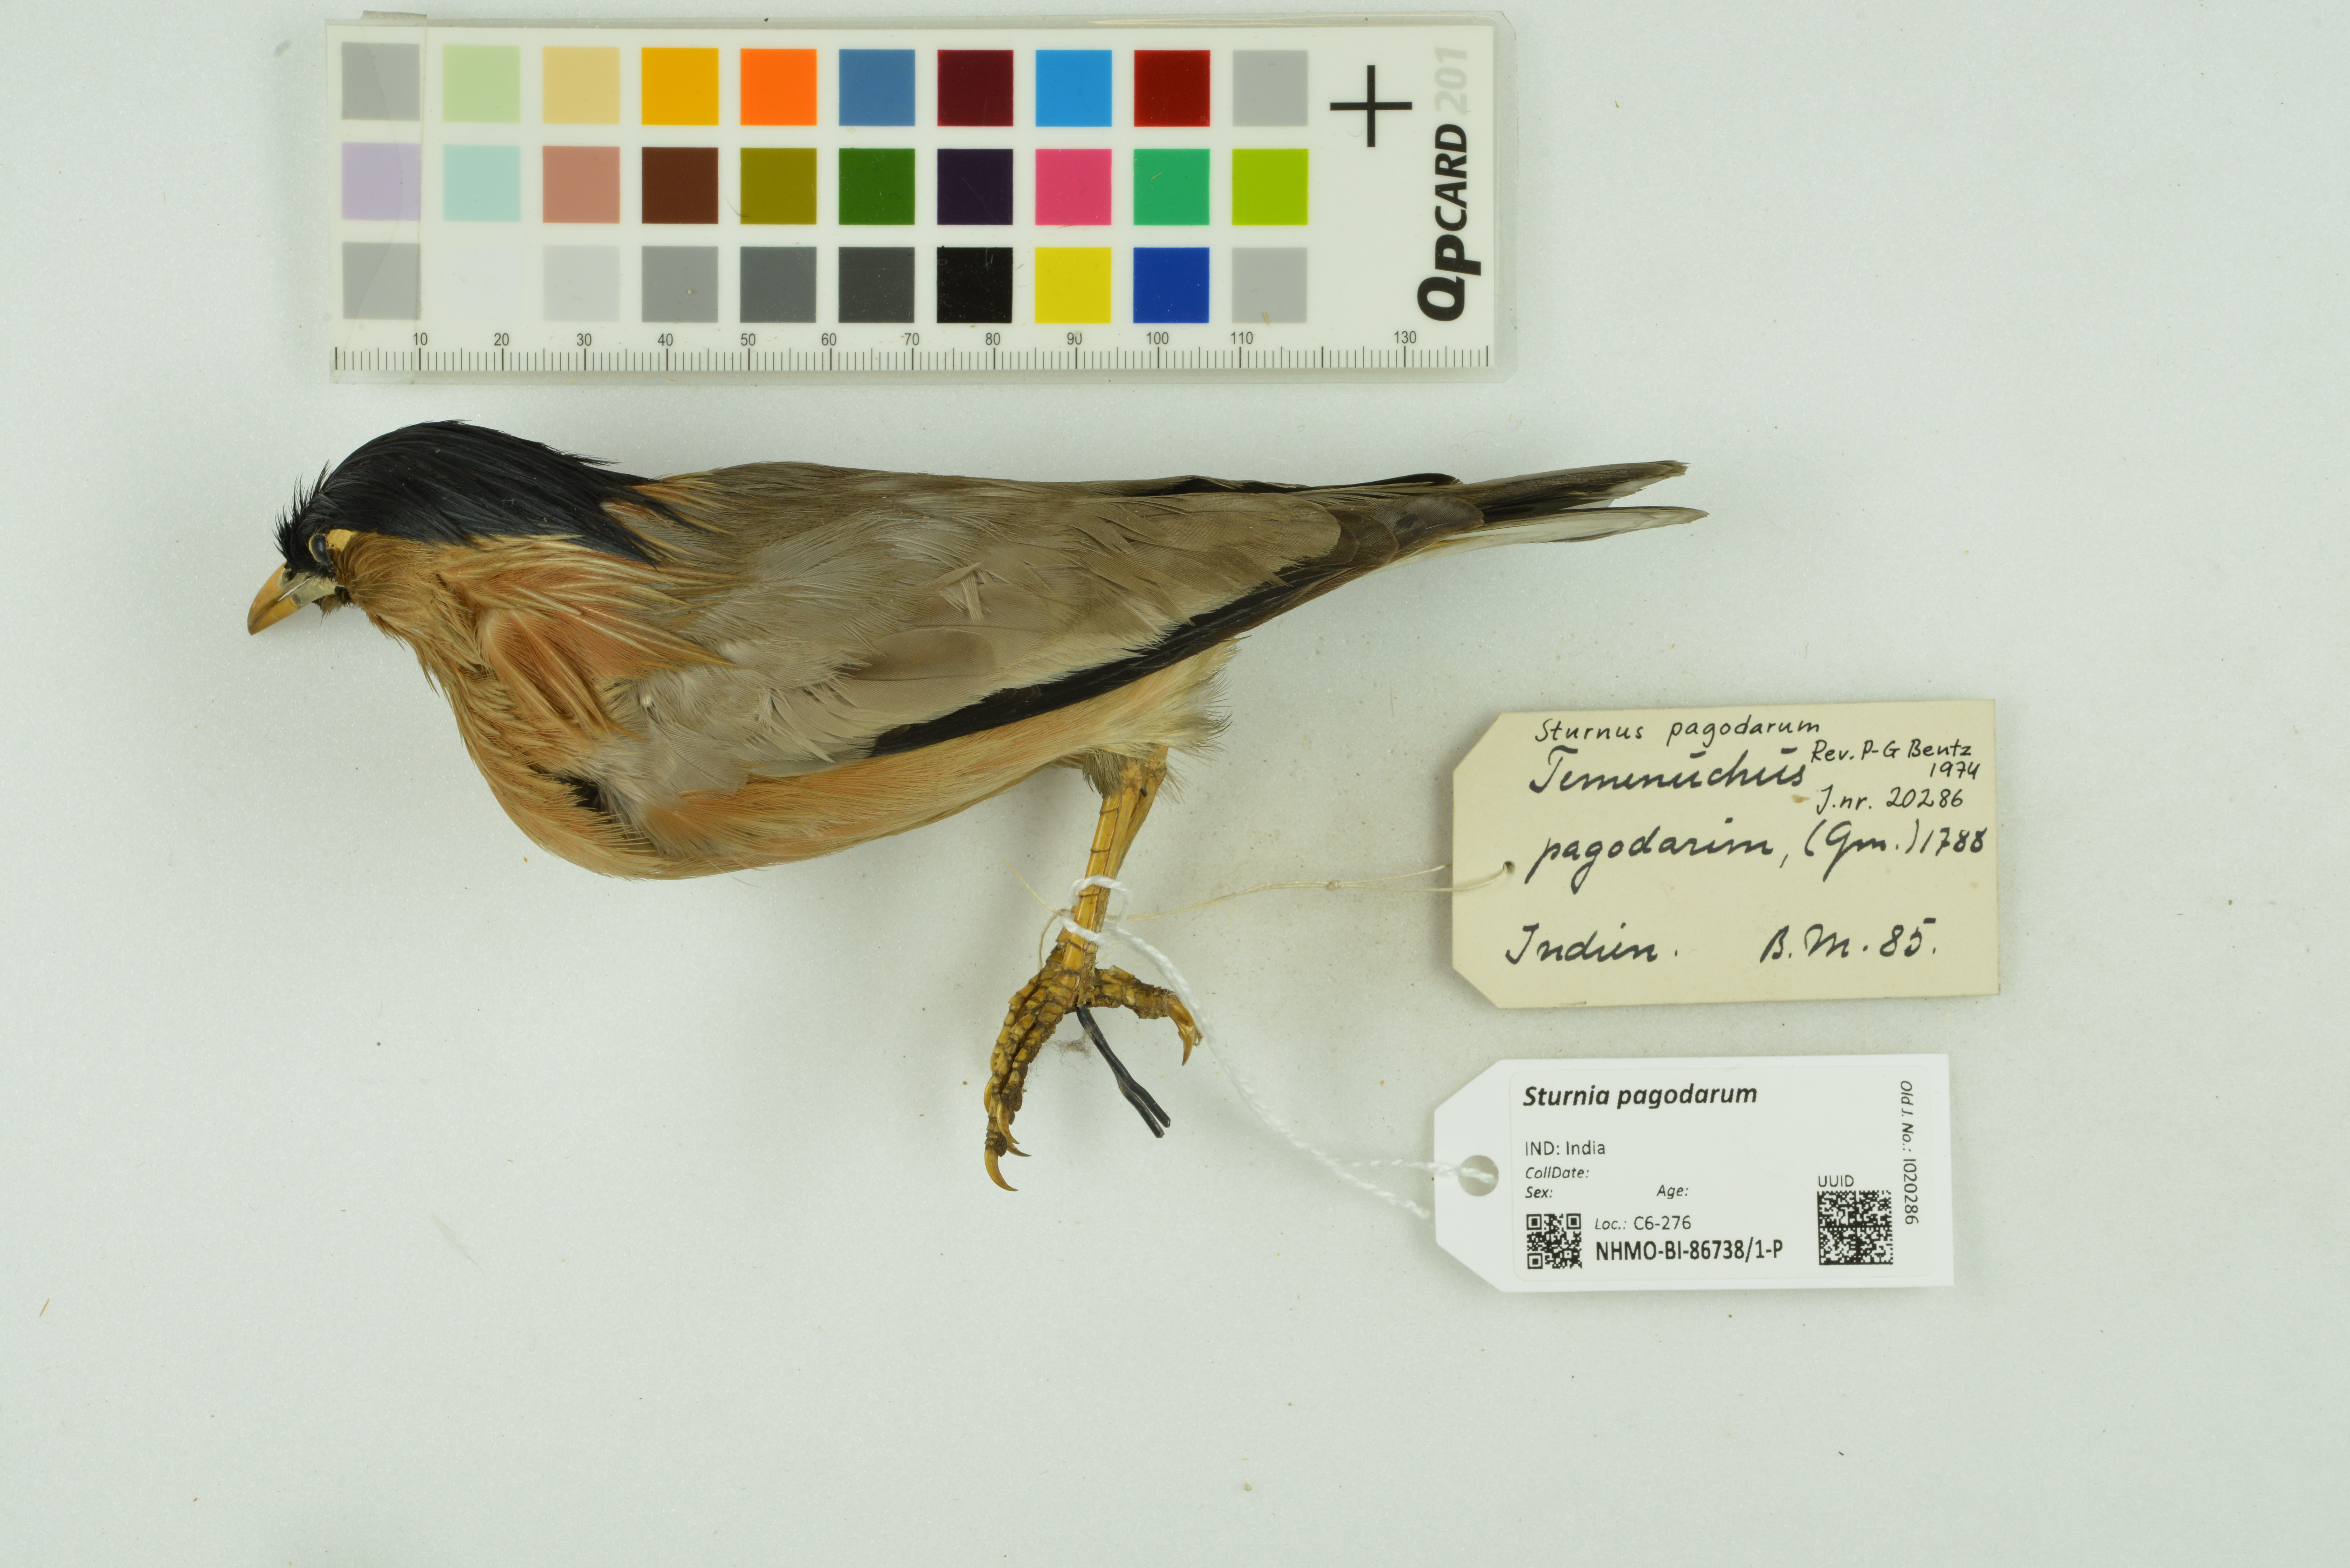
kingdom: Animalia
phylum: Chordata
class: Aves
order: Passeriformes
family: Sturnidae
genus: Sturnia
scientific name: Sturnia pagodarum
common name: Brahminy starling
